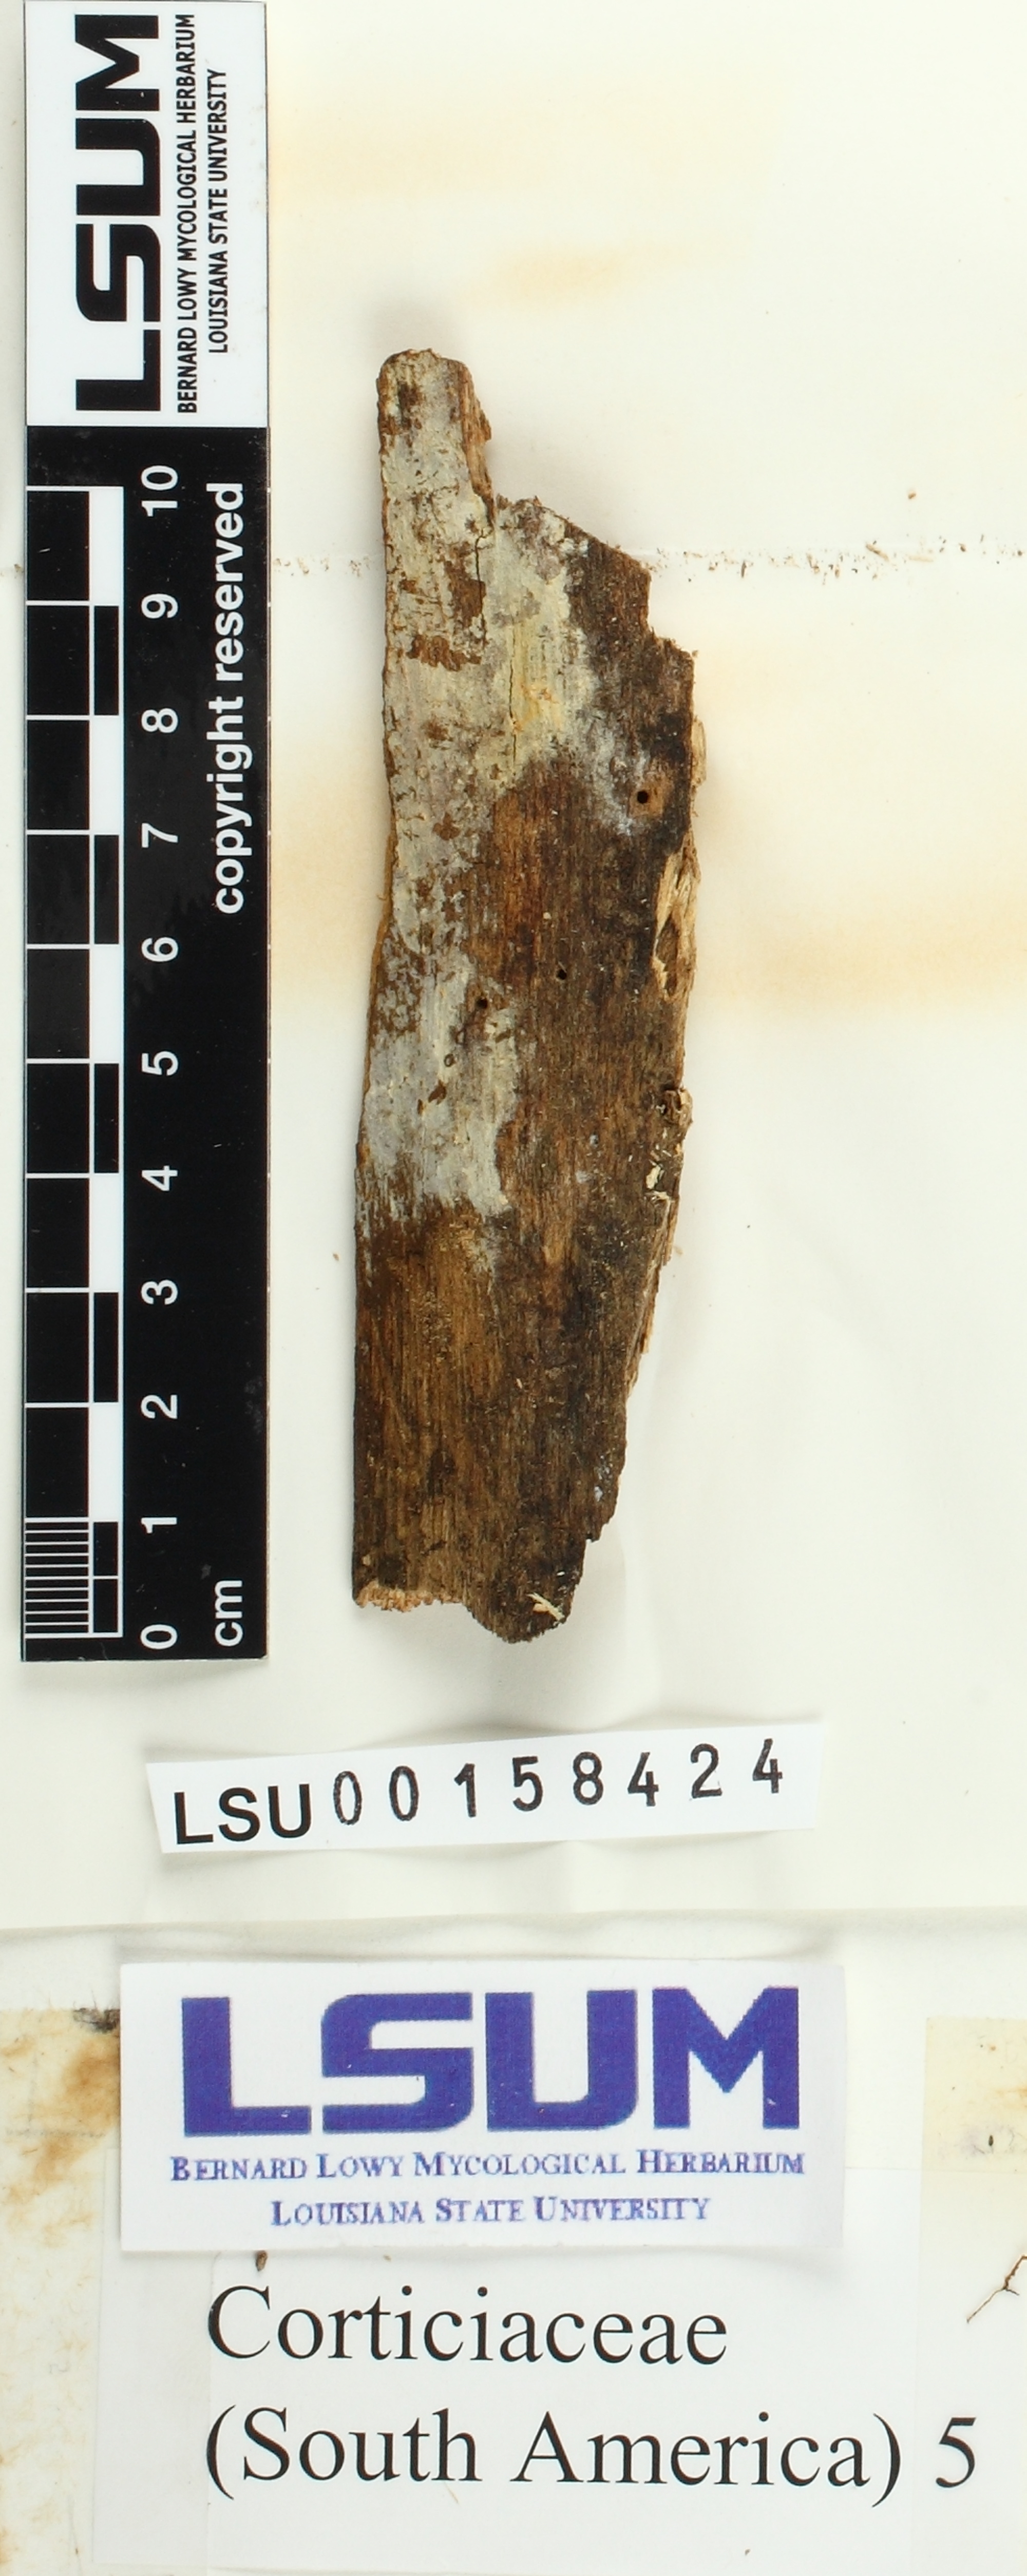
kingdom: Fungi
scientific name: Fungi
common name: Fungi
